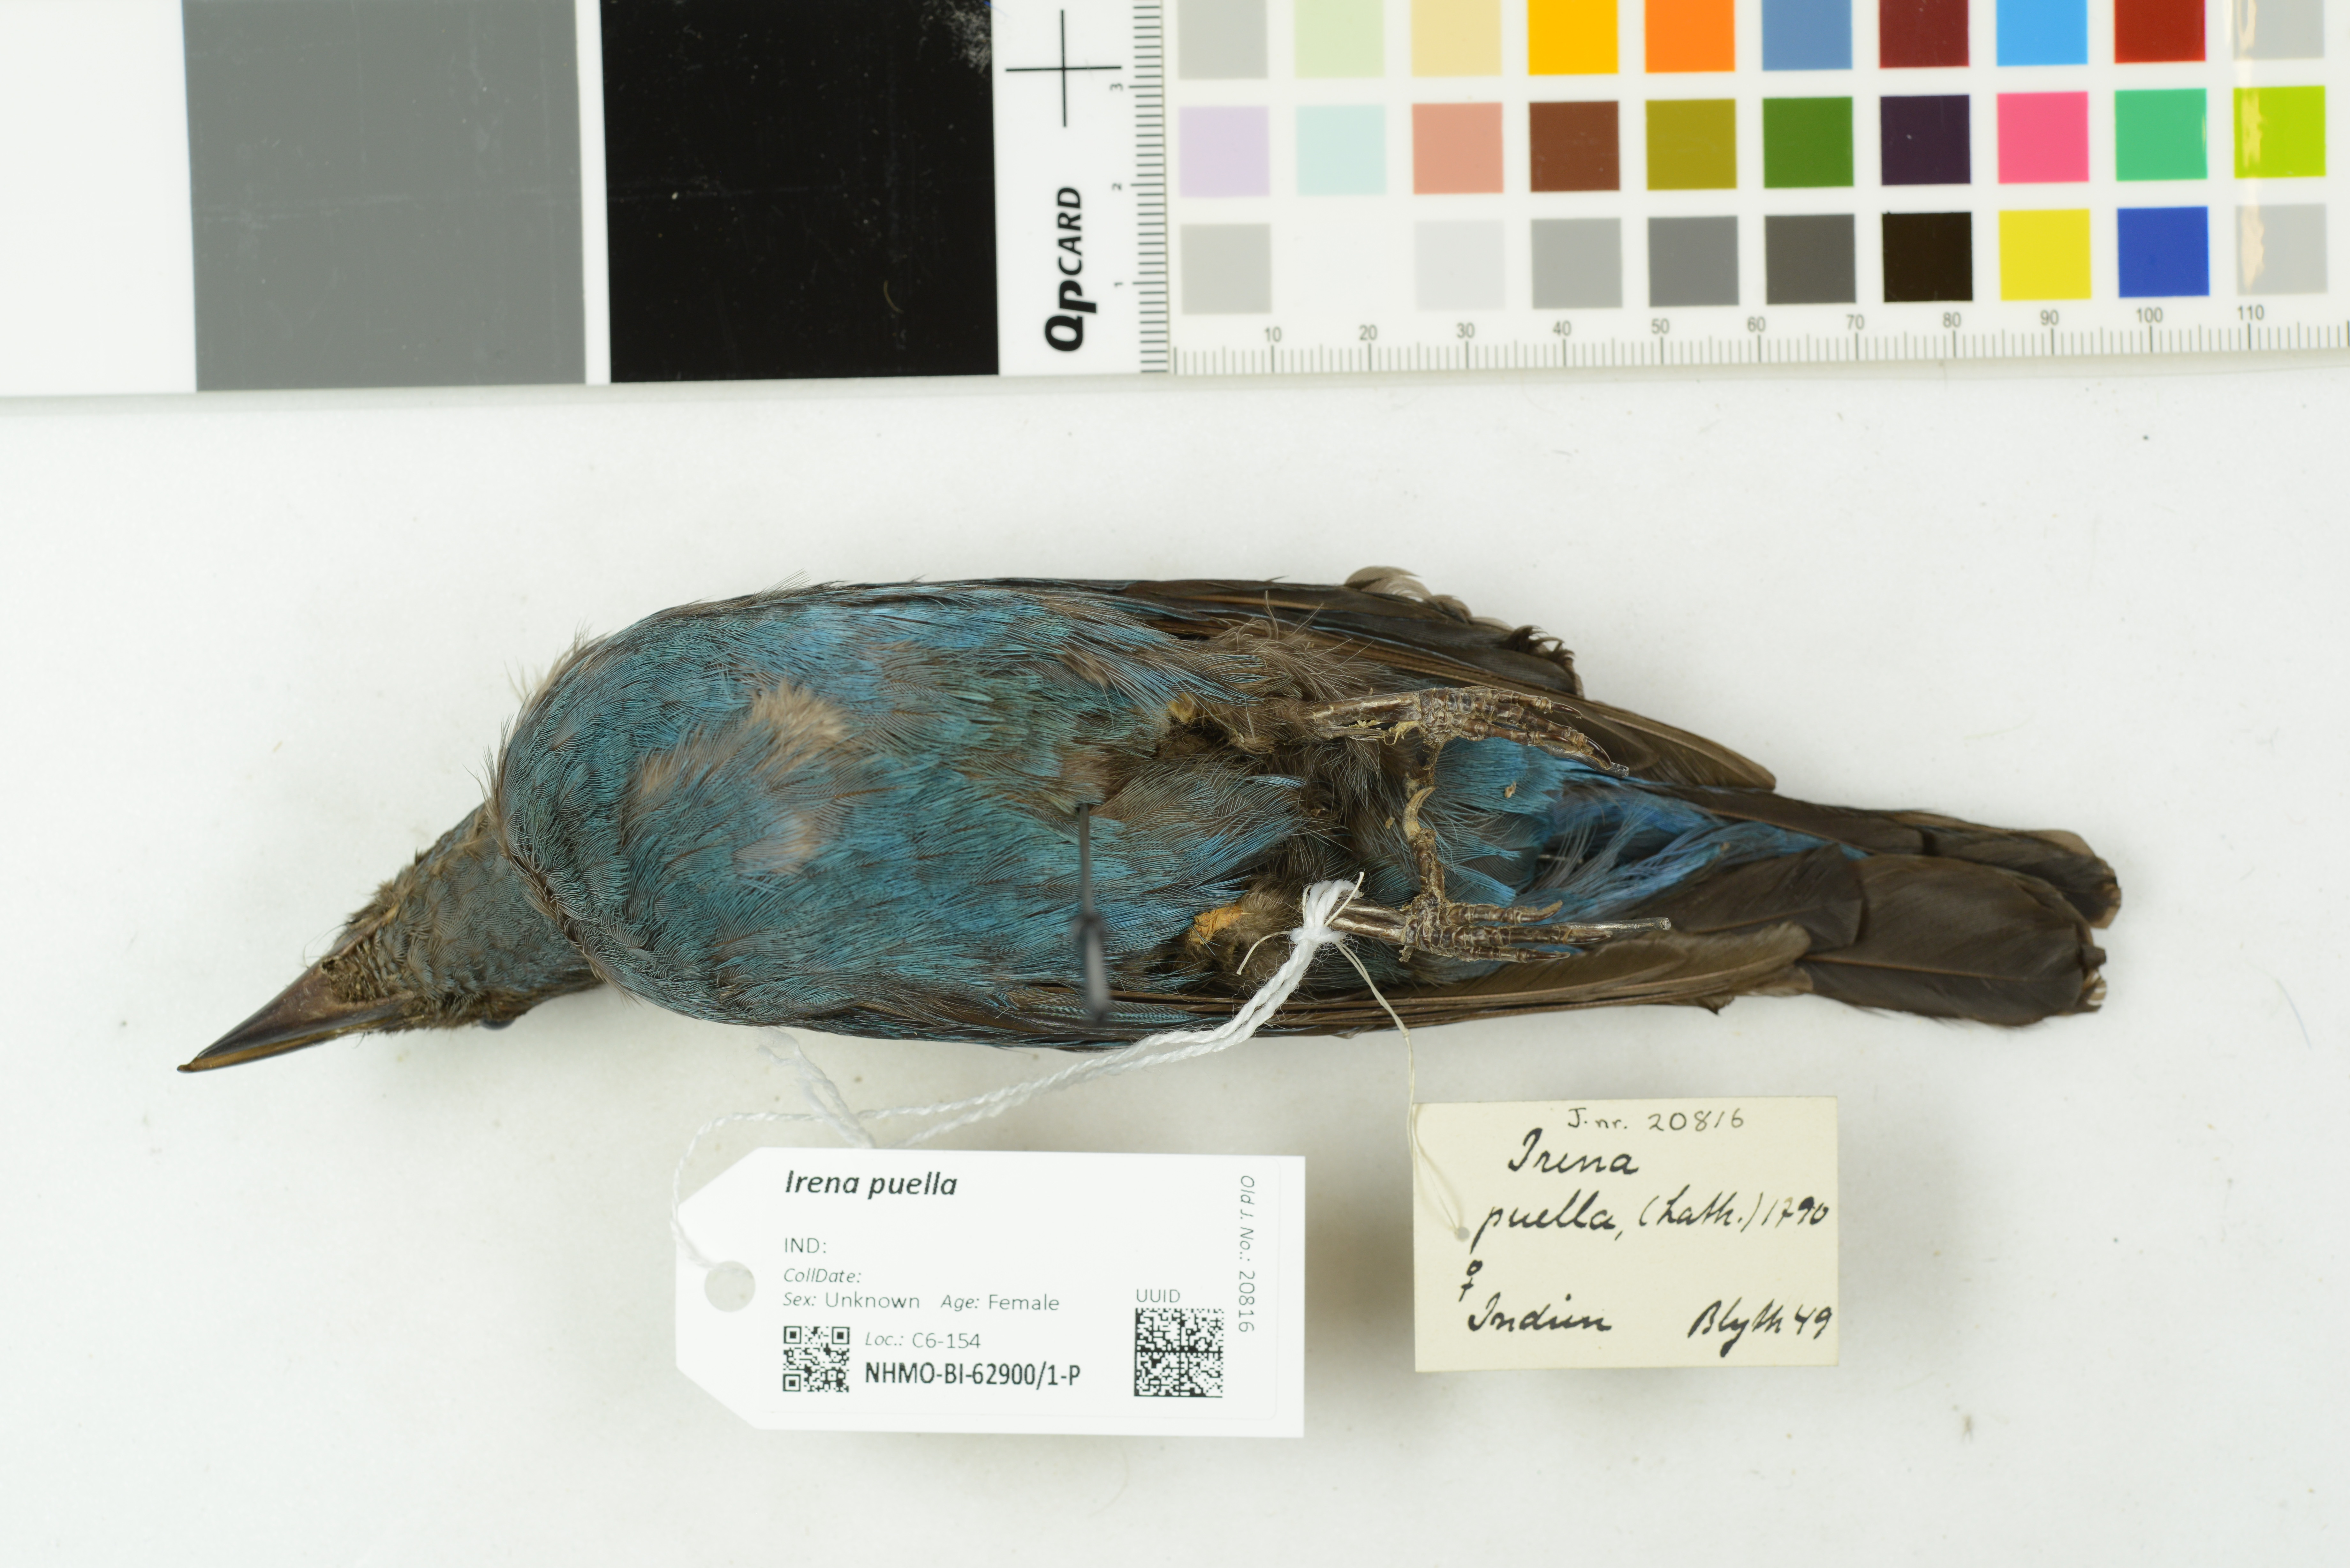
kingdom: Animalia
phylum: Chordata
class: Aves
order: Passeriformes
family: Irenidae
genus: Irena
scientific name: Irena puella
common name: Asian fairy-bluebird
